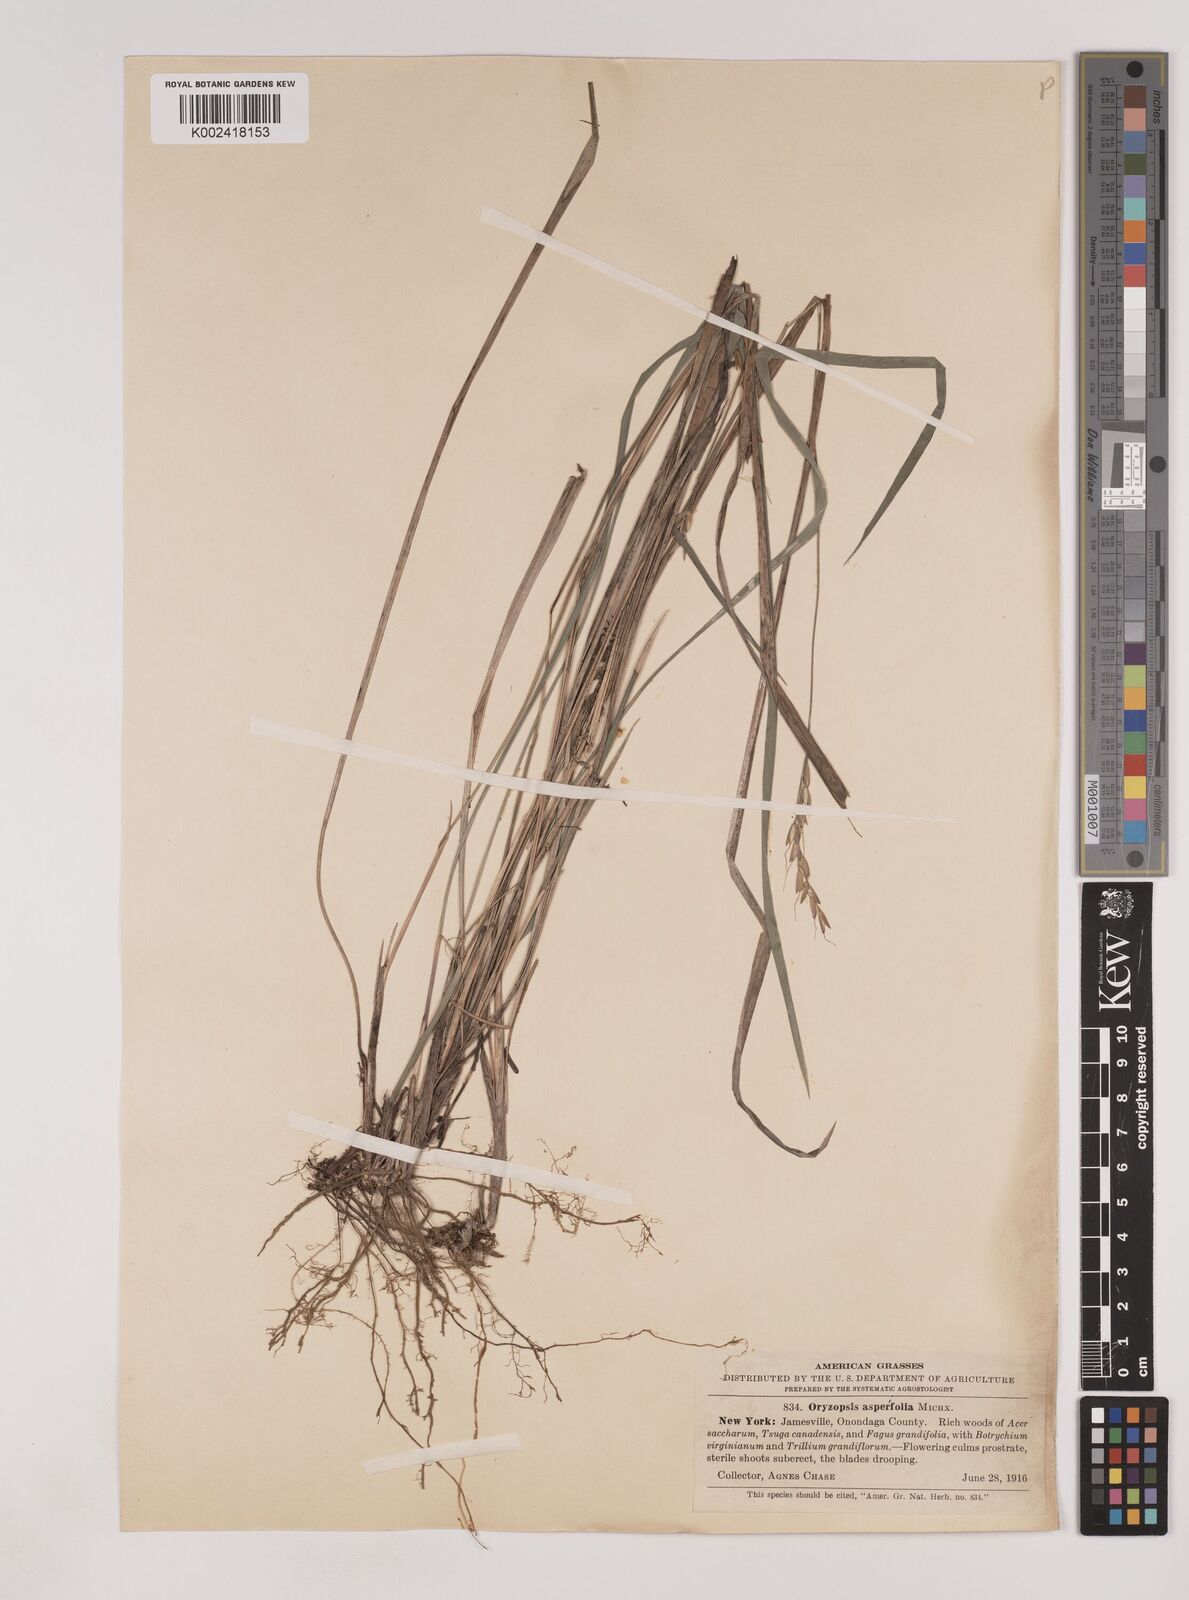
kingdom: Plantae
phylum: Tracheophyta
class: Liliopsida
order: Poales
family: Poaceae
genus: Oryzopsis
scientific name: Oryzopsis asperifolia
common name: Rough-leaved mountain rice
